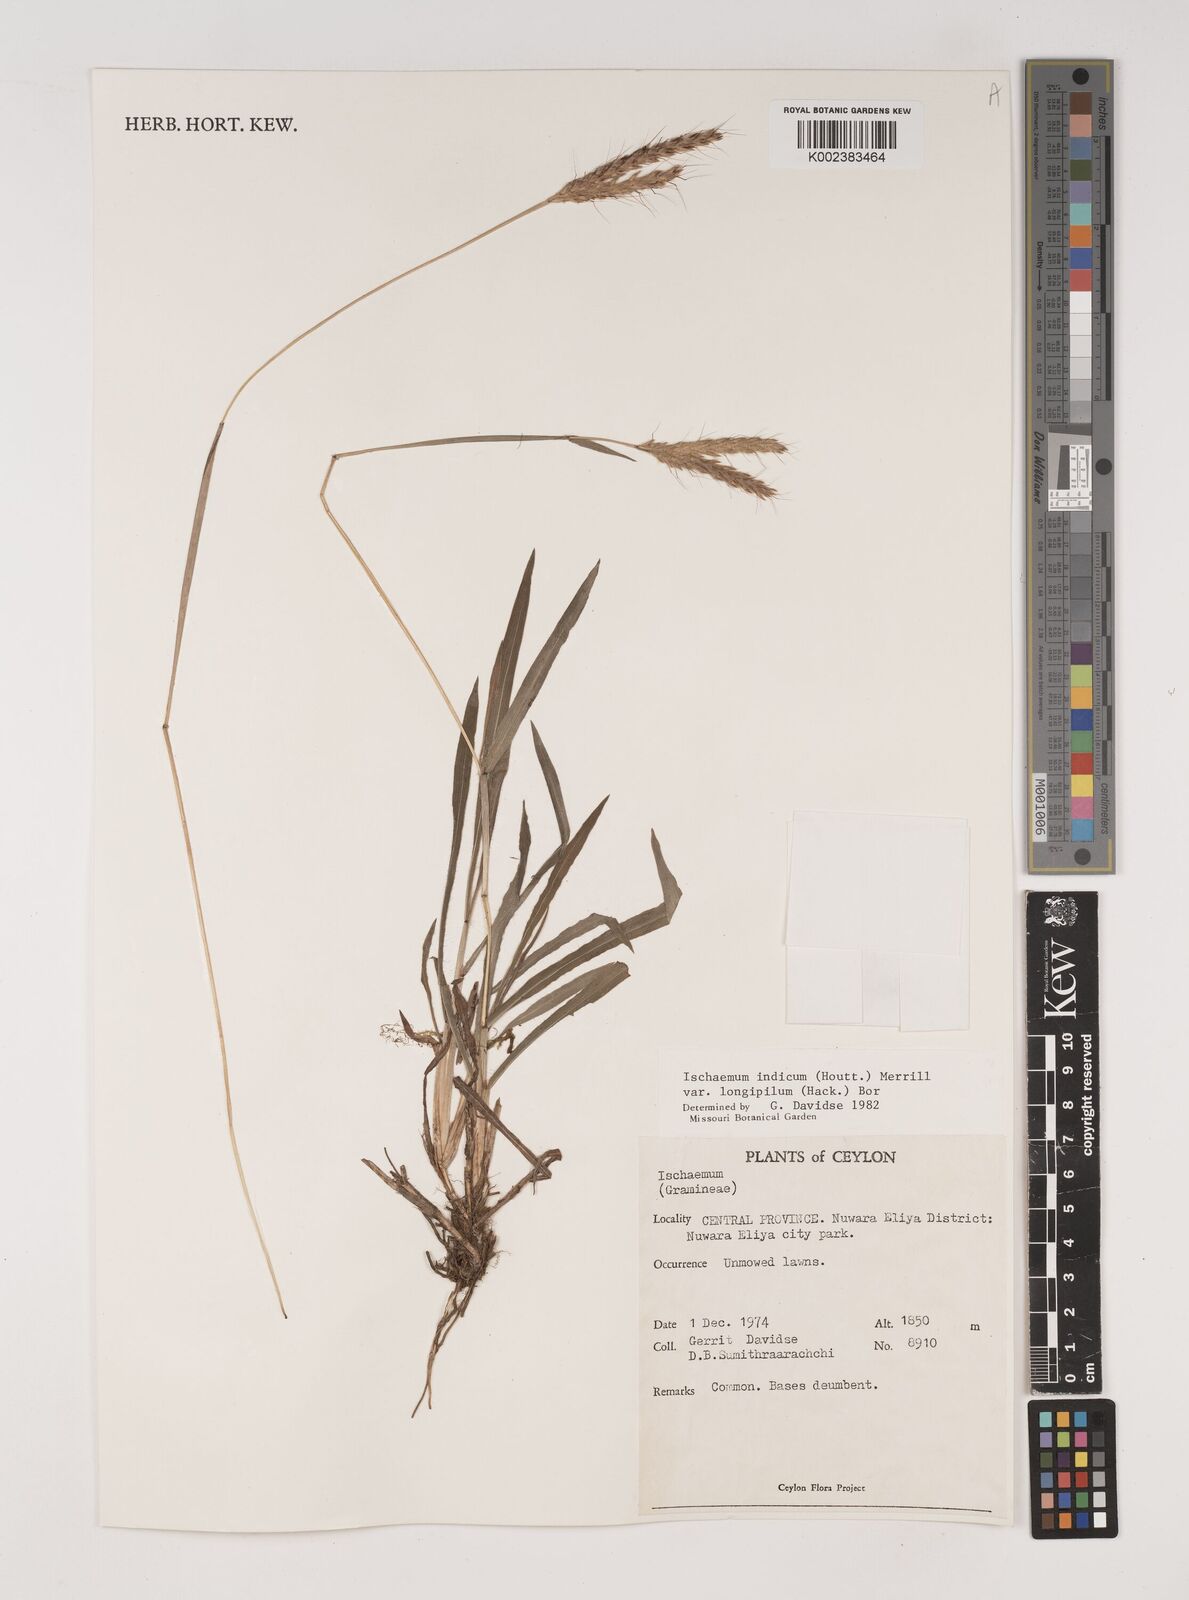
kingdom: Plantae
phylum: Tracheophyta
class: Liliopsida
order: Poales
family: Poaceae
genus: Polytrias
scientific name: Polytrias indica
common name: Indian murainagrass
